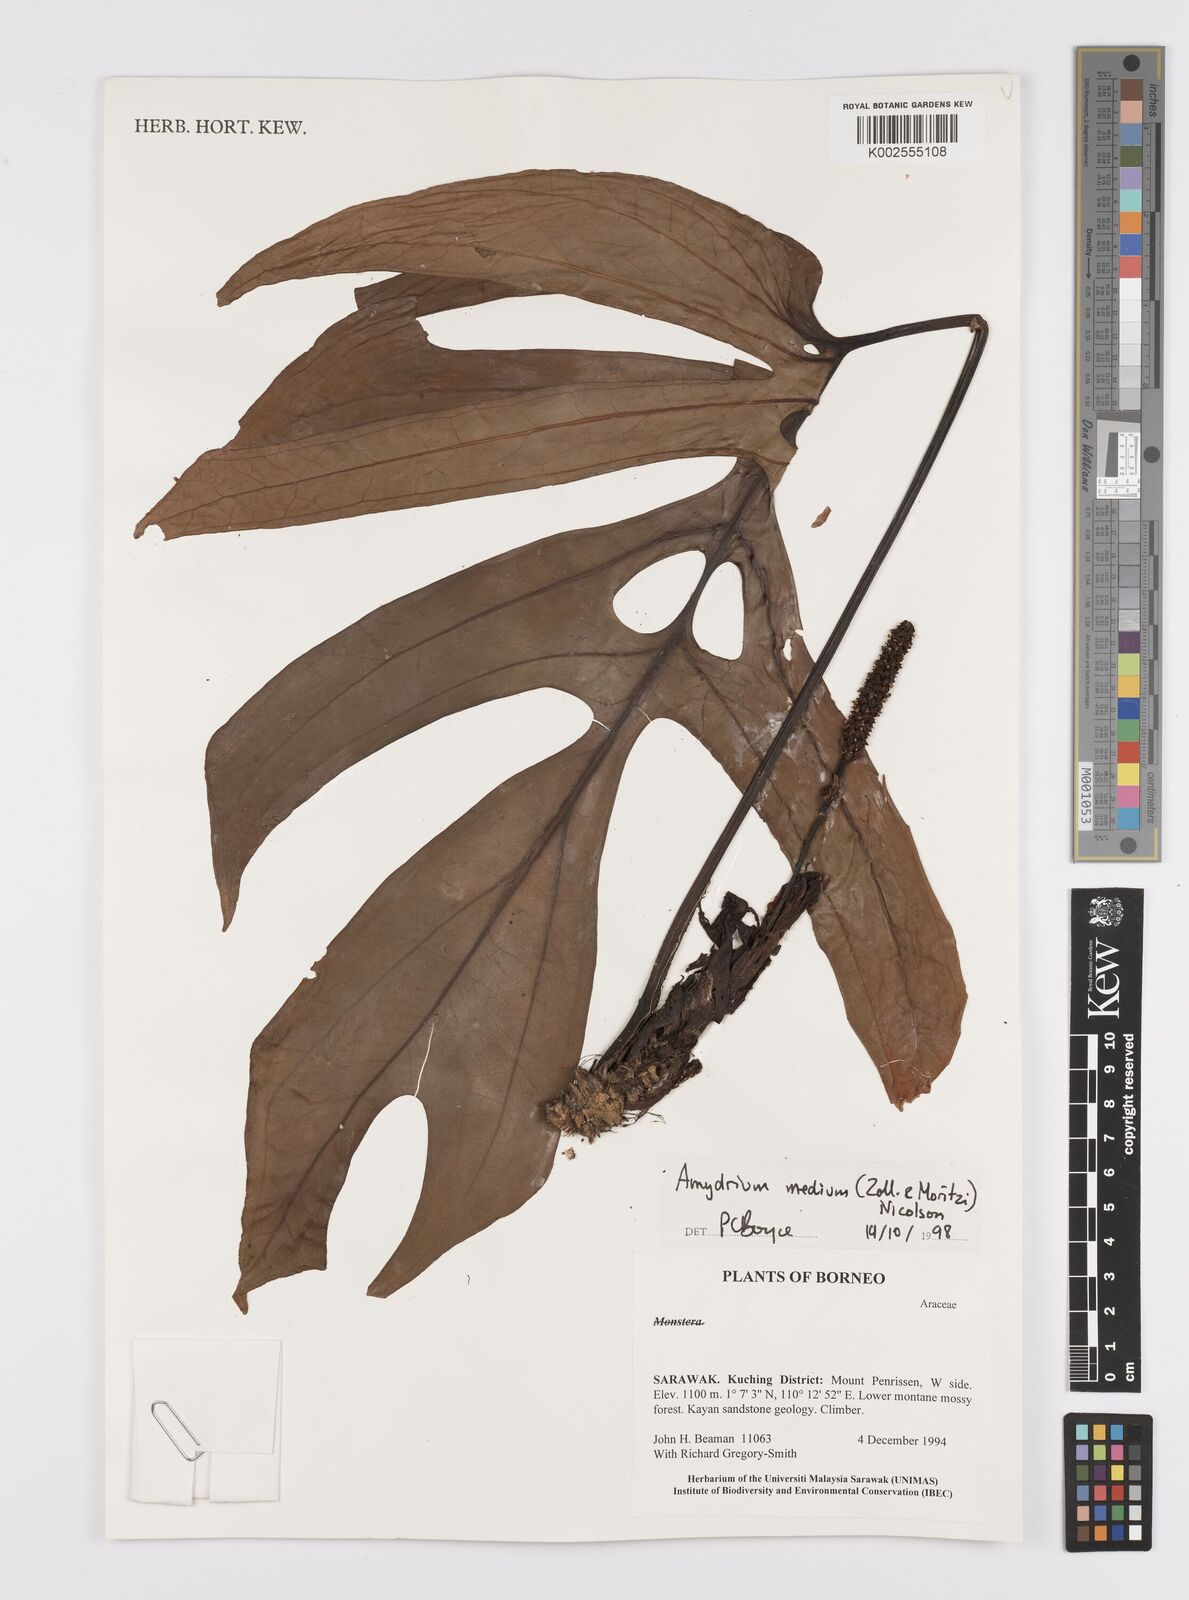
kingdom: Plantae
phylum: Tracheophyta
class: Liliopsida
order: Alismatales
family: Araceae
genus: Amydrium
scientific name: Amydrium medium
